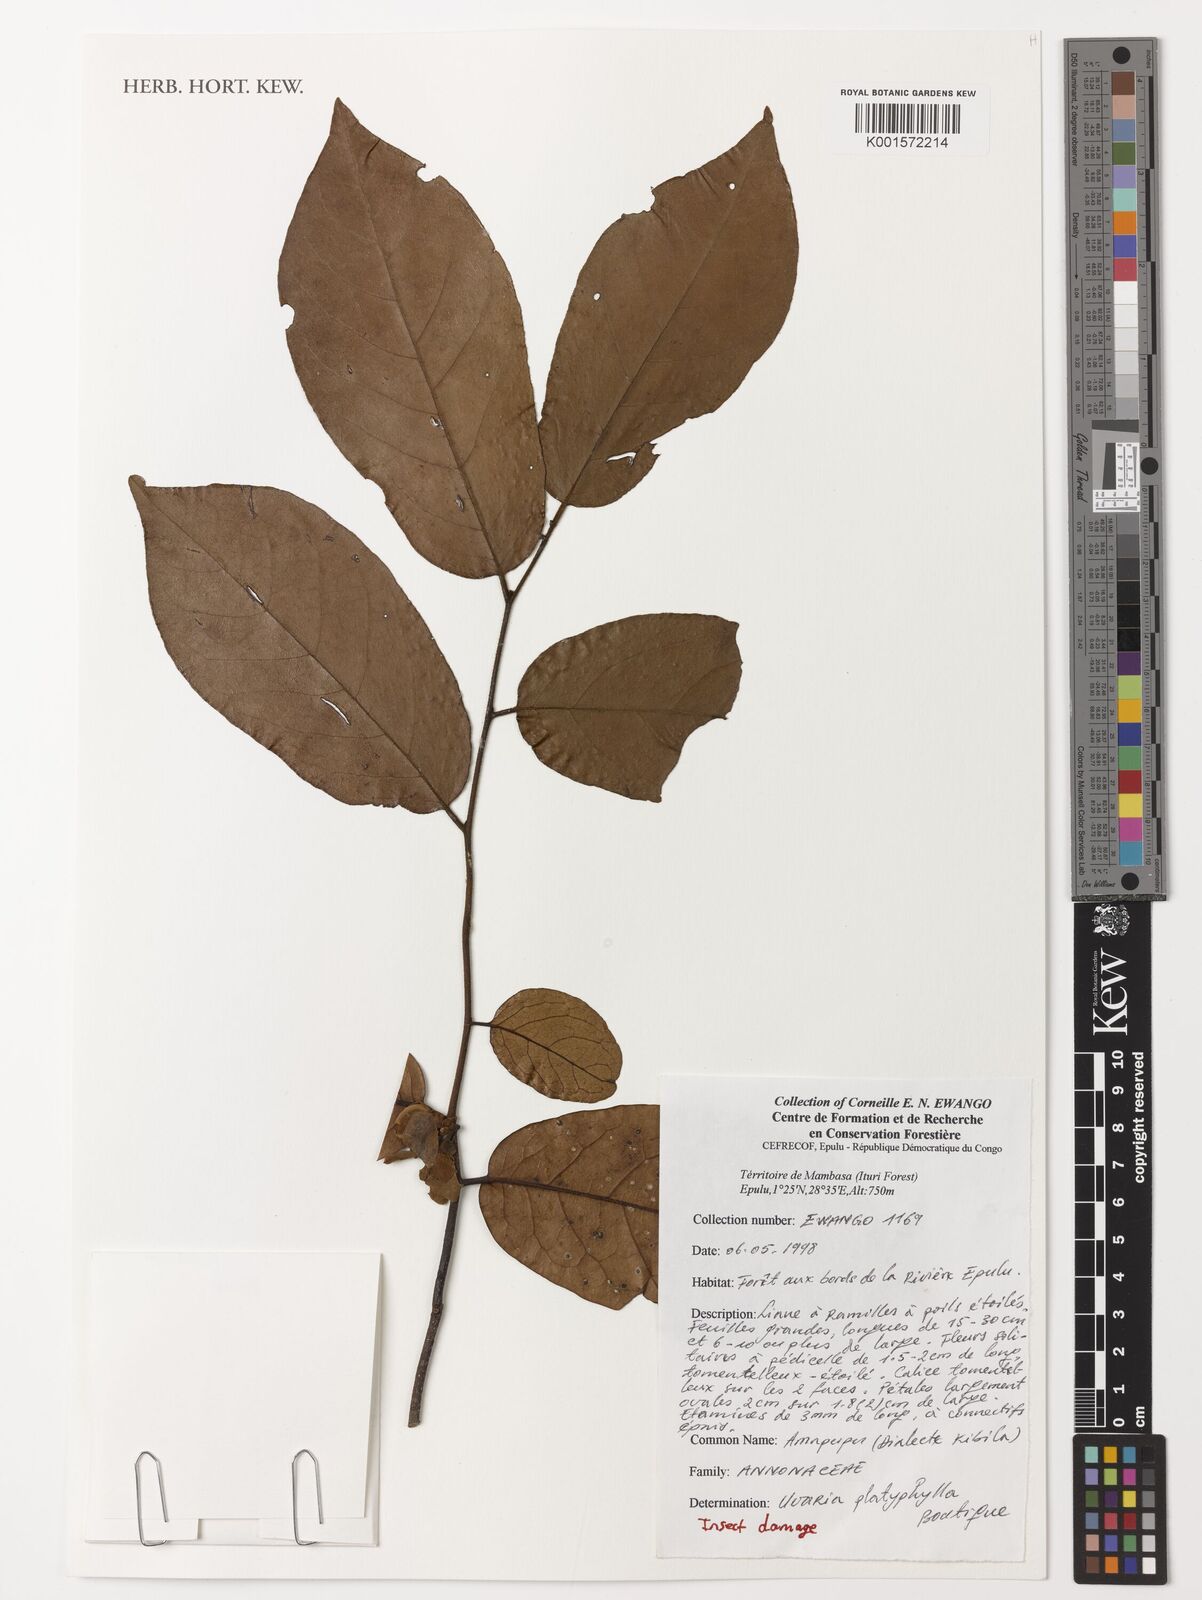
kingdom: Plantae
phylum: Tracheophyta
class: Magnoliopsida
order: Magnoliales
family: Annonaceae
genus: Uvaria
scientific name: Uvaria anonoides
